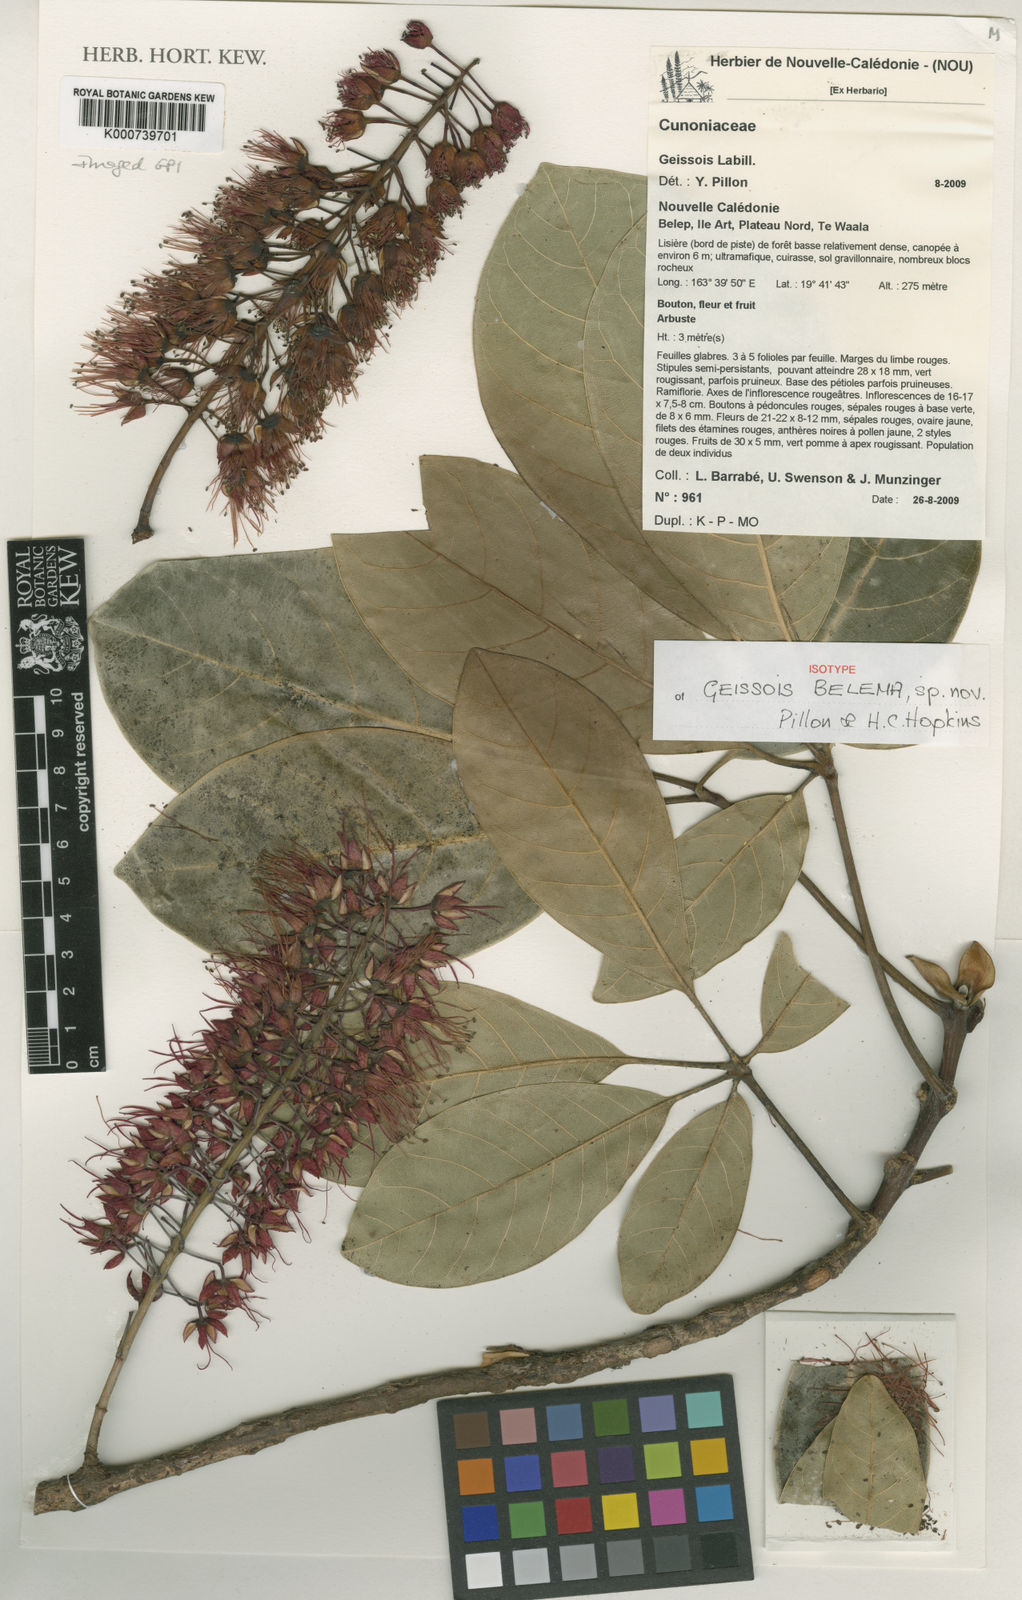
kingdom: Plantae
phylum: Tracheophyta
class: Magnoliopsida
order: Oxalidales
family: Cunoniaceae
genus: Geissois
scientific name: Geissois belema
